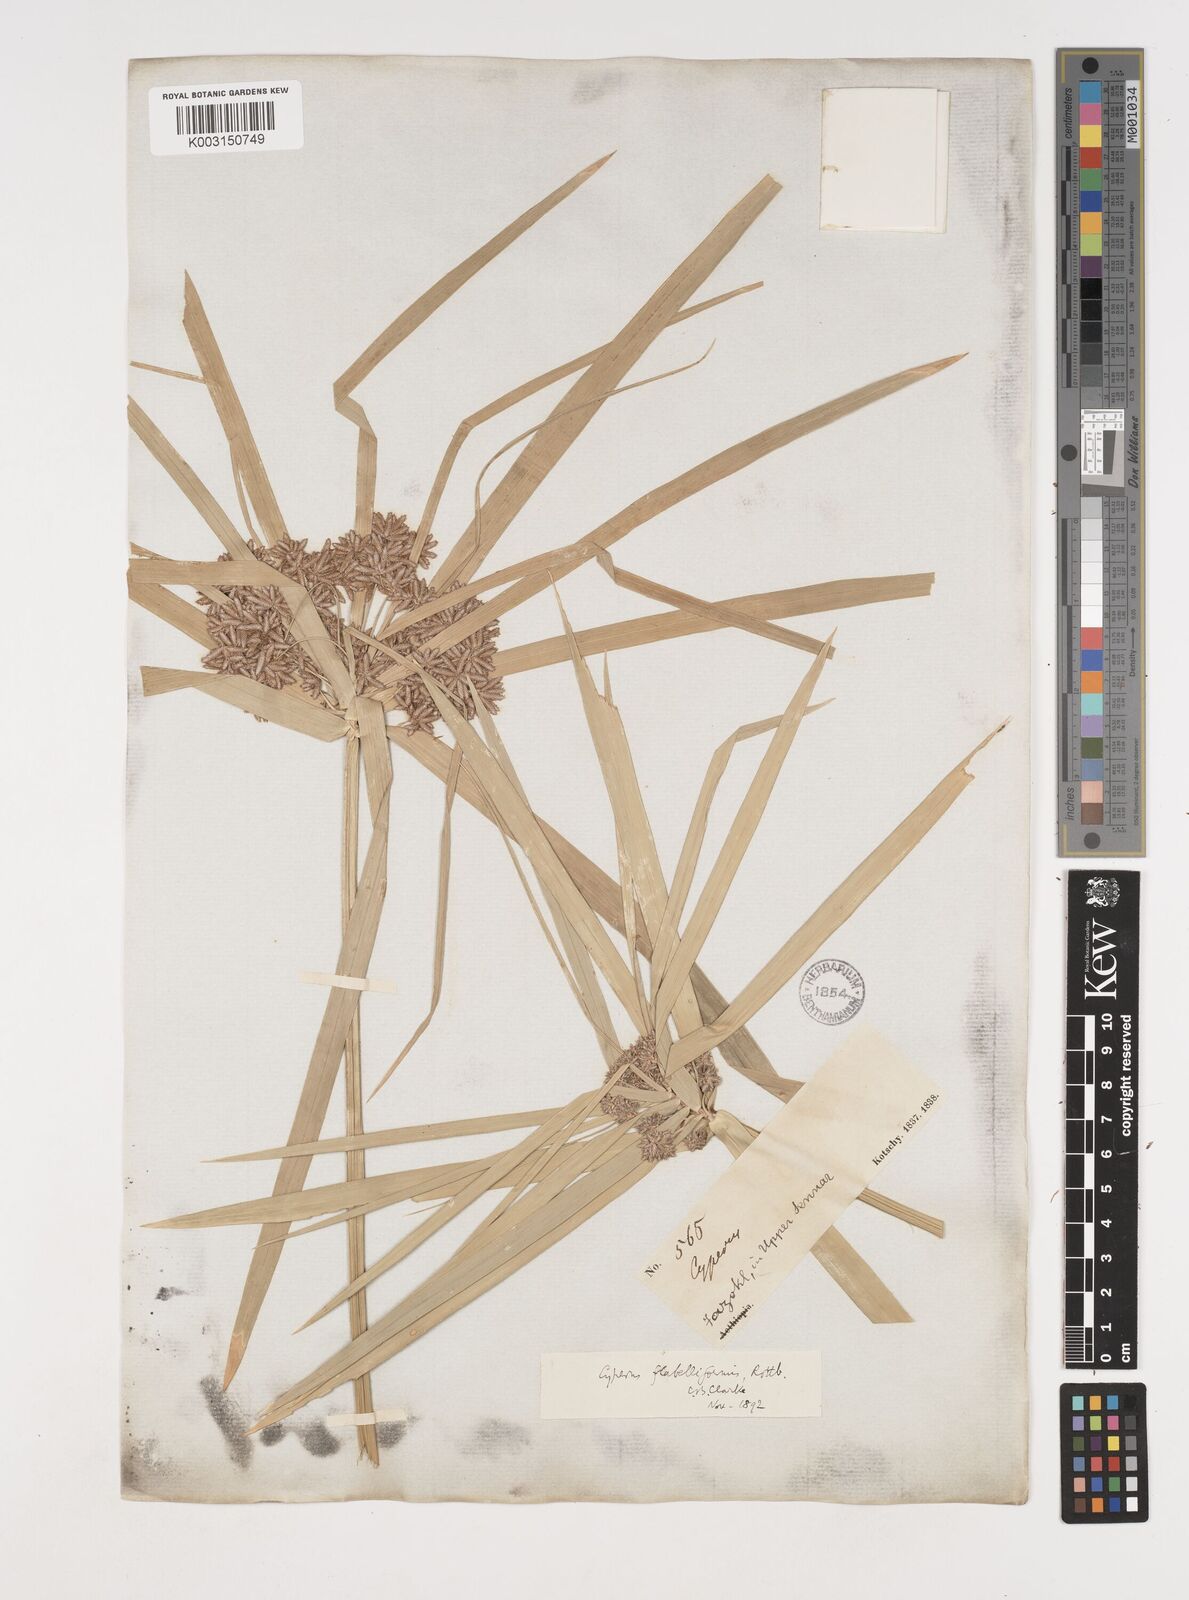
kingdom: Plantae
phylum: Tracheophyta
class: Liliopsida
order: Poales
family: Cyperaceae
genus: Cyperus
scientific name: Cyperus alternifolius
